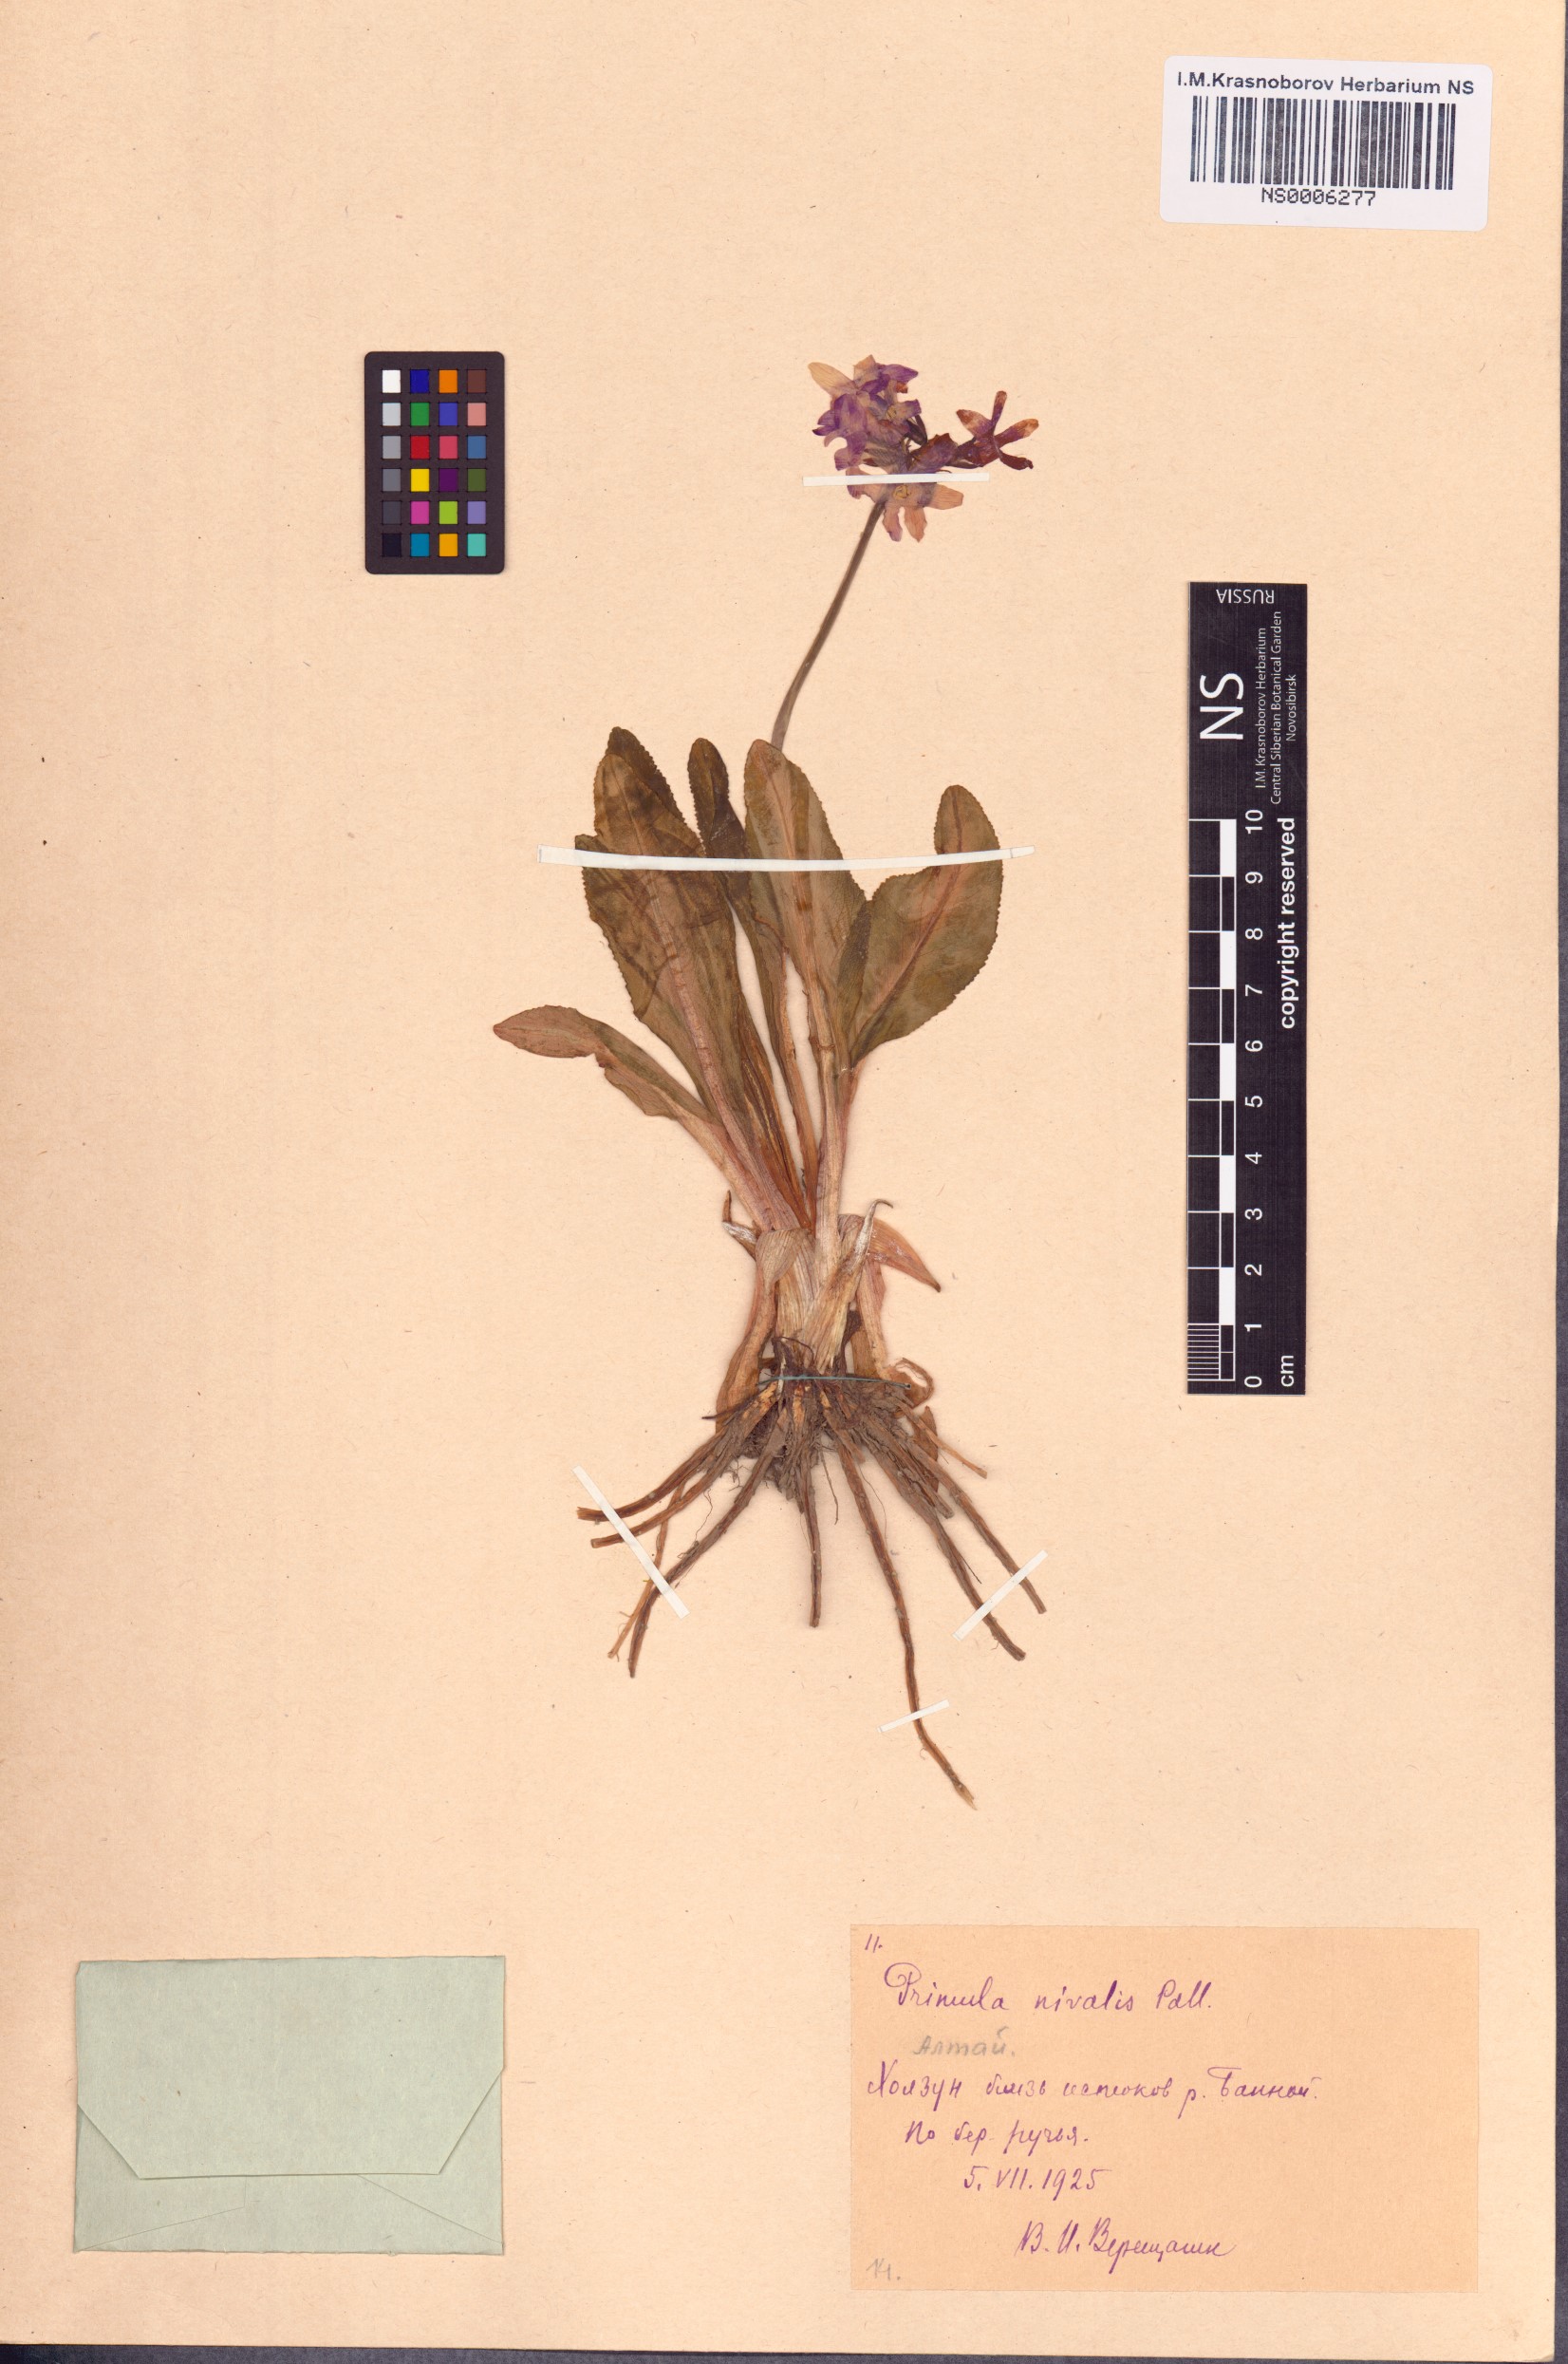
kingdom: Plantae
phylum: Tracheophyta
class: Magnoliopsida
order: Ericales
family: Primulaceae
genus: Primula
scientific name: Primula nivalis
